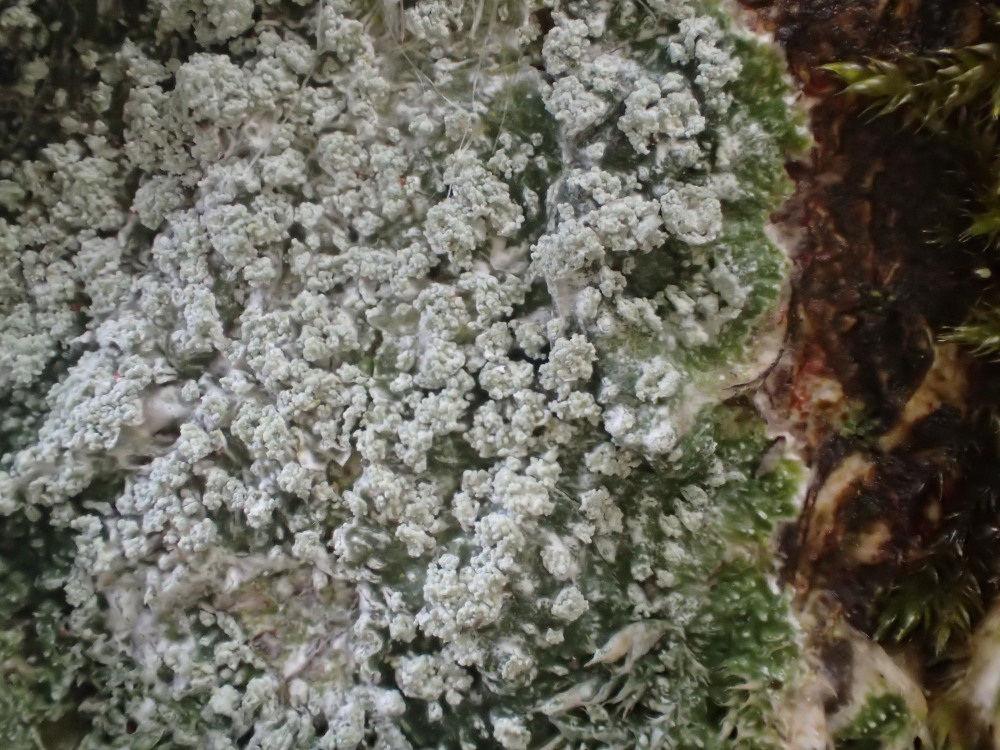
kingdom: Fungi
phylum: Ascomycota
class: Lecanoromycetes
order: Pertusariales
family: Pertusariaceae
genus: Lepra
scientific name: Lepra albescens
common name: hvidmelet prikvortelav
